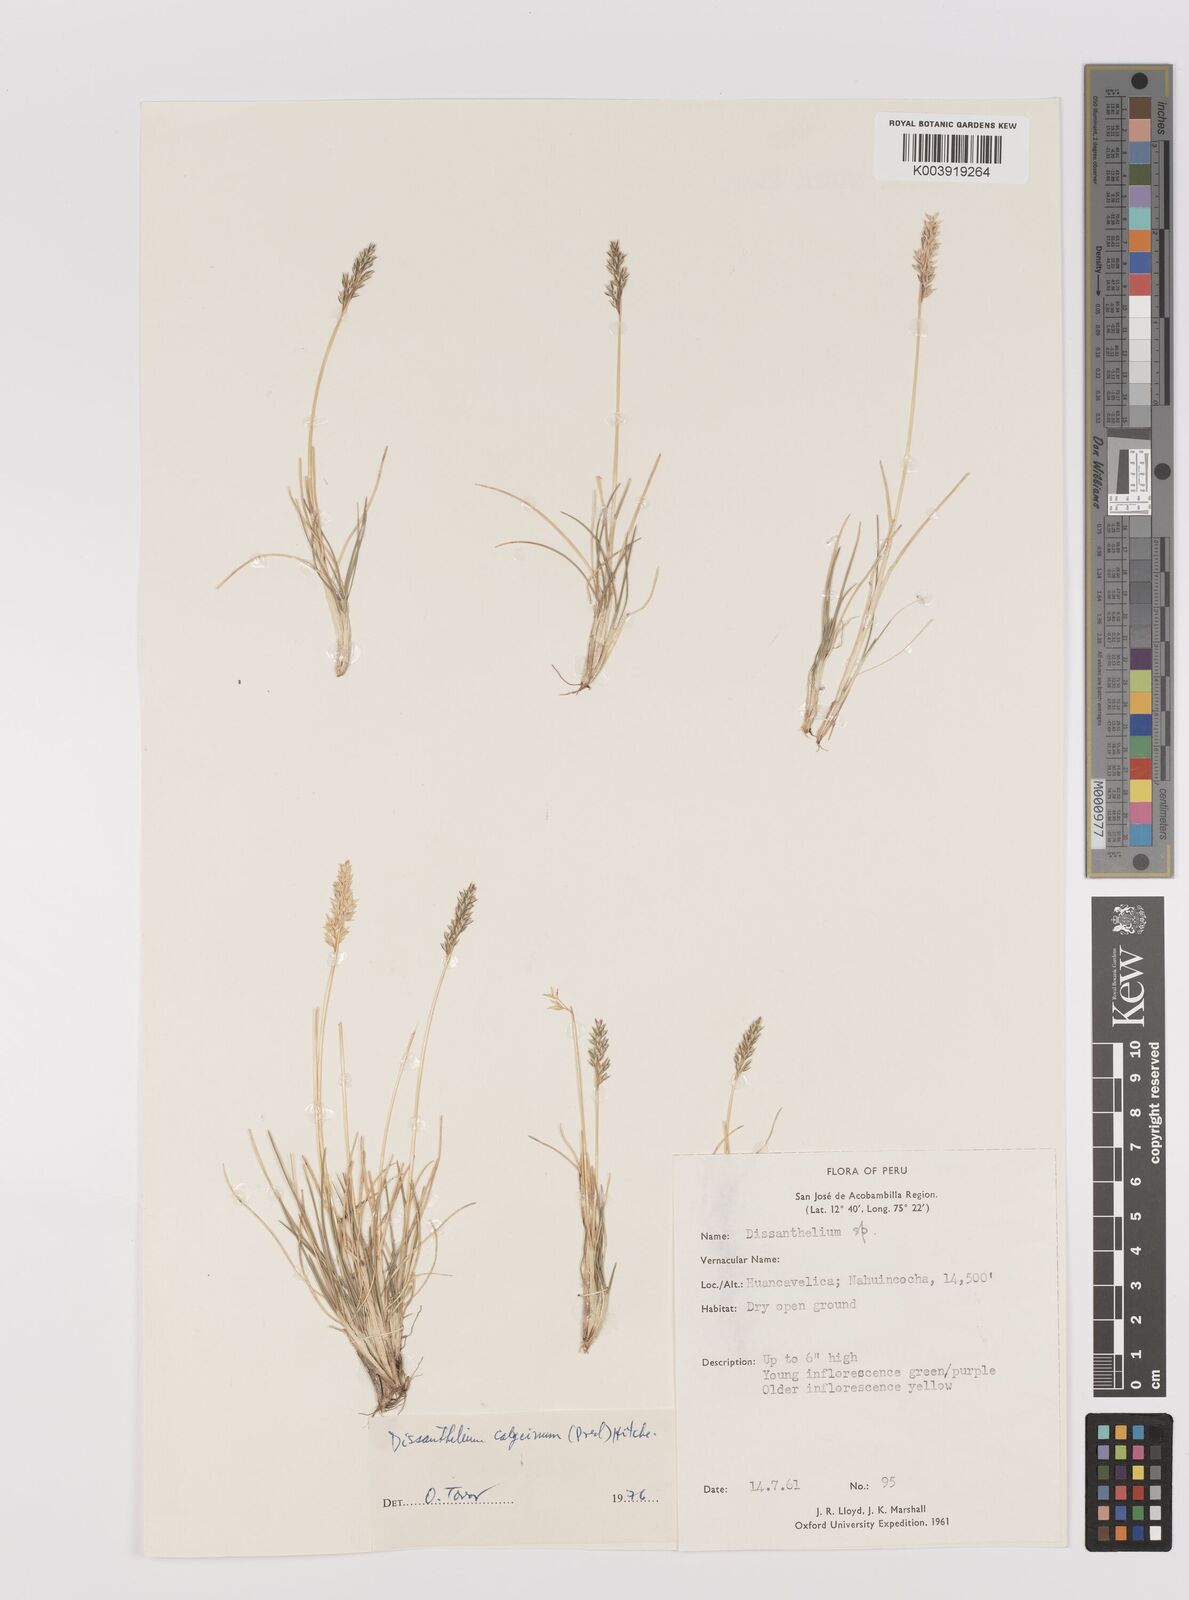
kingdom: Plantae
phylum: Tracheophyta
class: Liliopsida
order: Poales
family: Poaceae
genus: Poa
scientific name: Poa calycina
